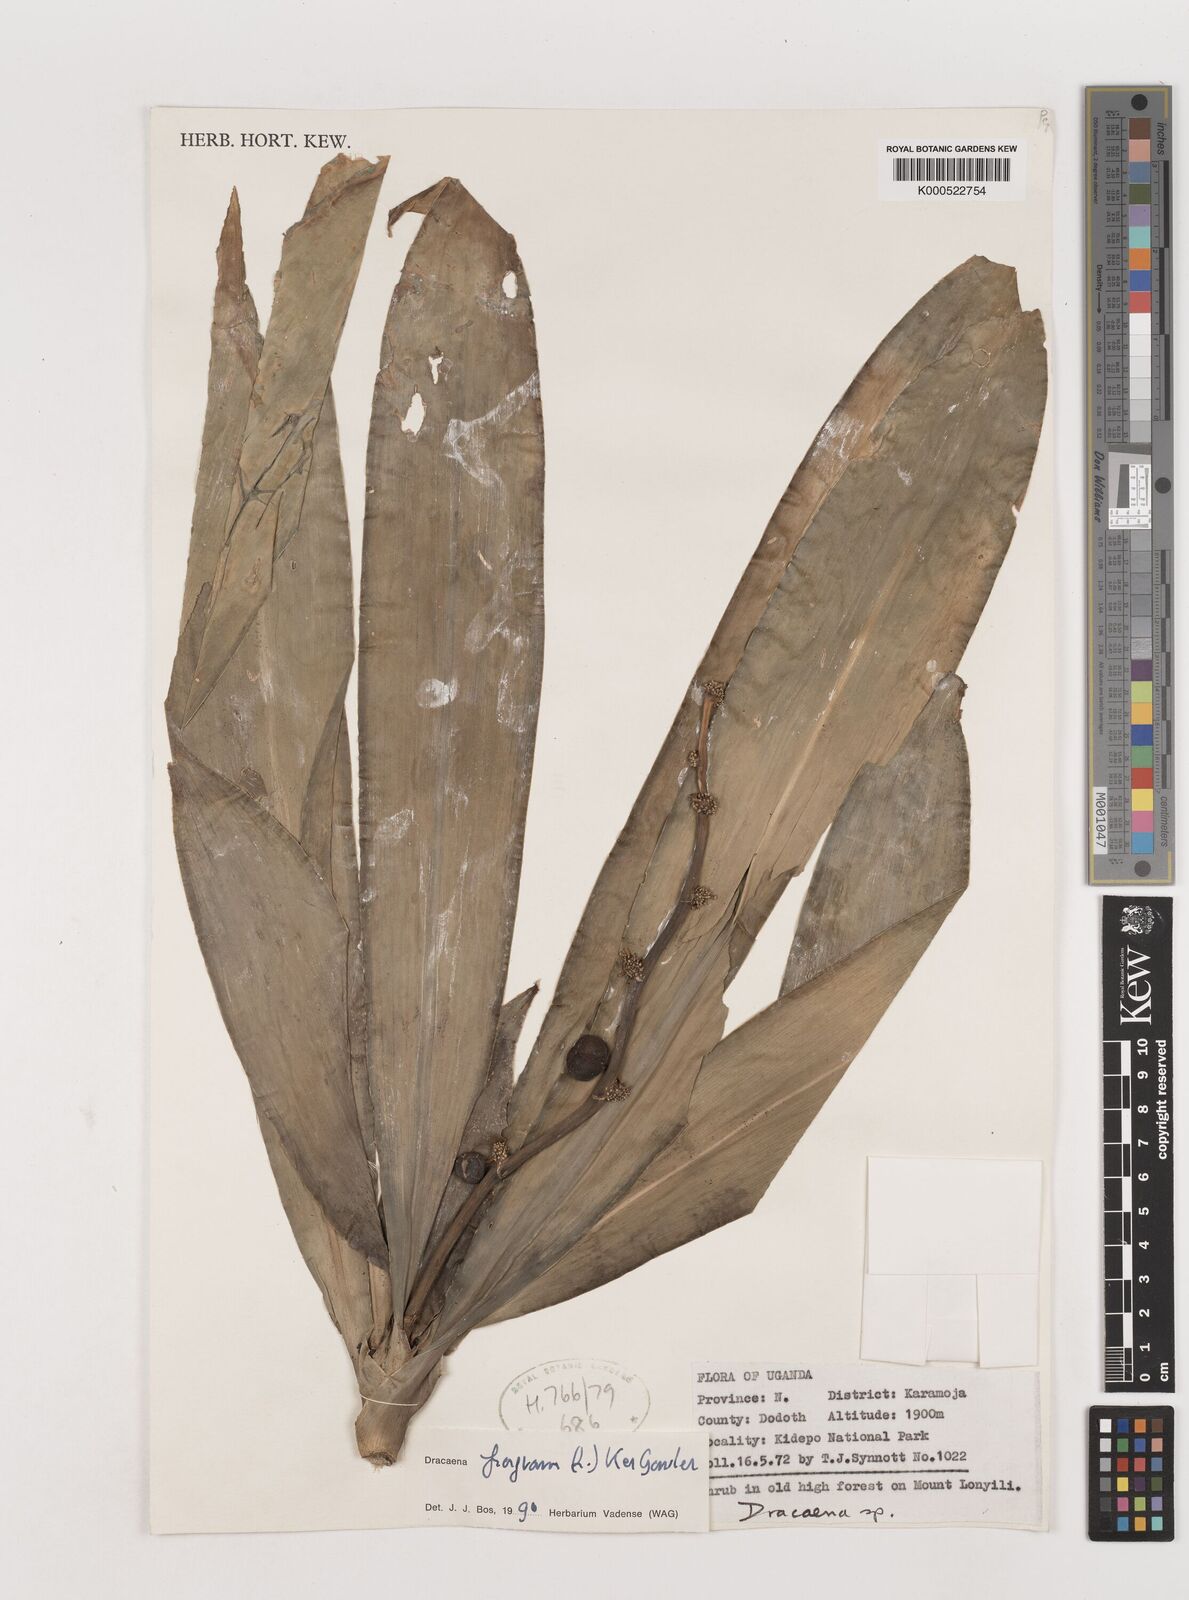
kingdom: Plantae
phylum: Tracheophyta
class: Liliopsida
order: Asparagales
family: Asparagaceae
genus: Dracaena
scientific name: Dracaena fragrans
